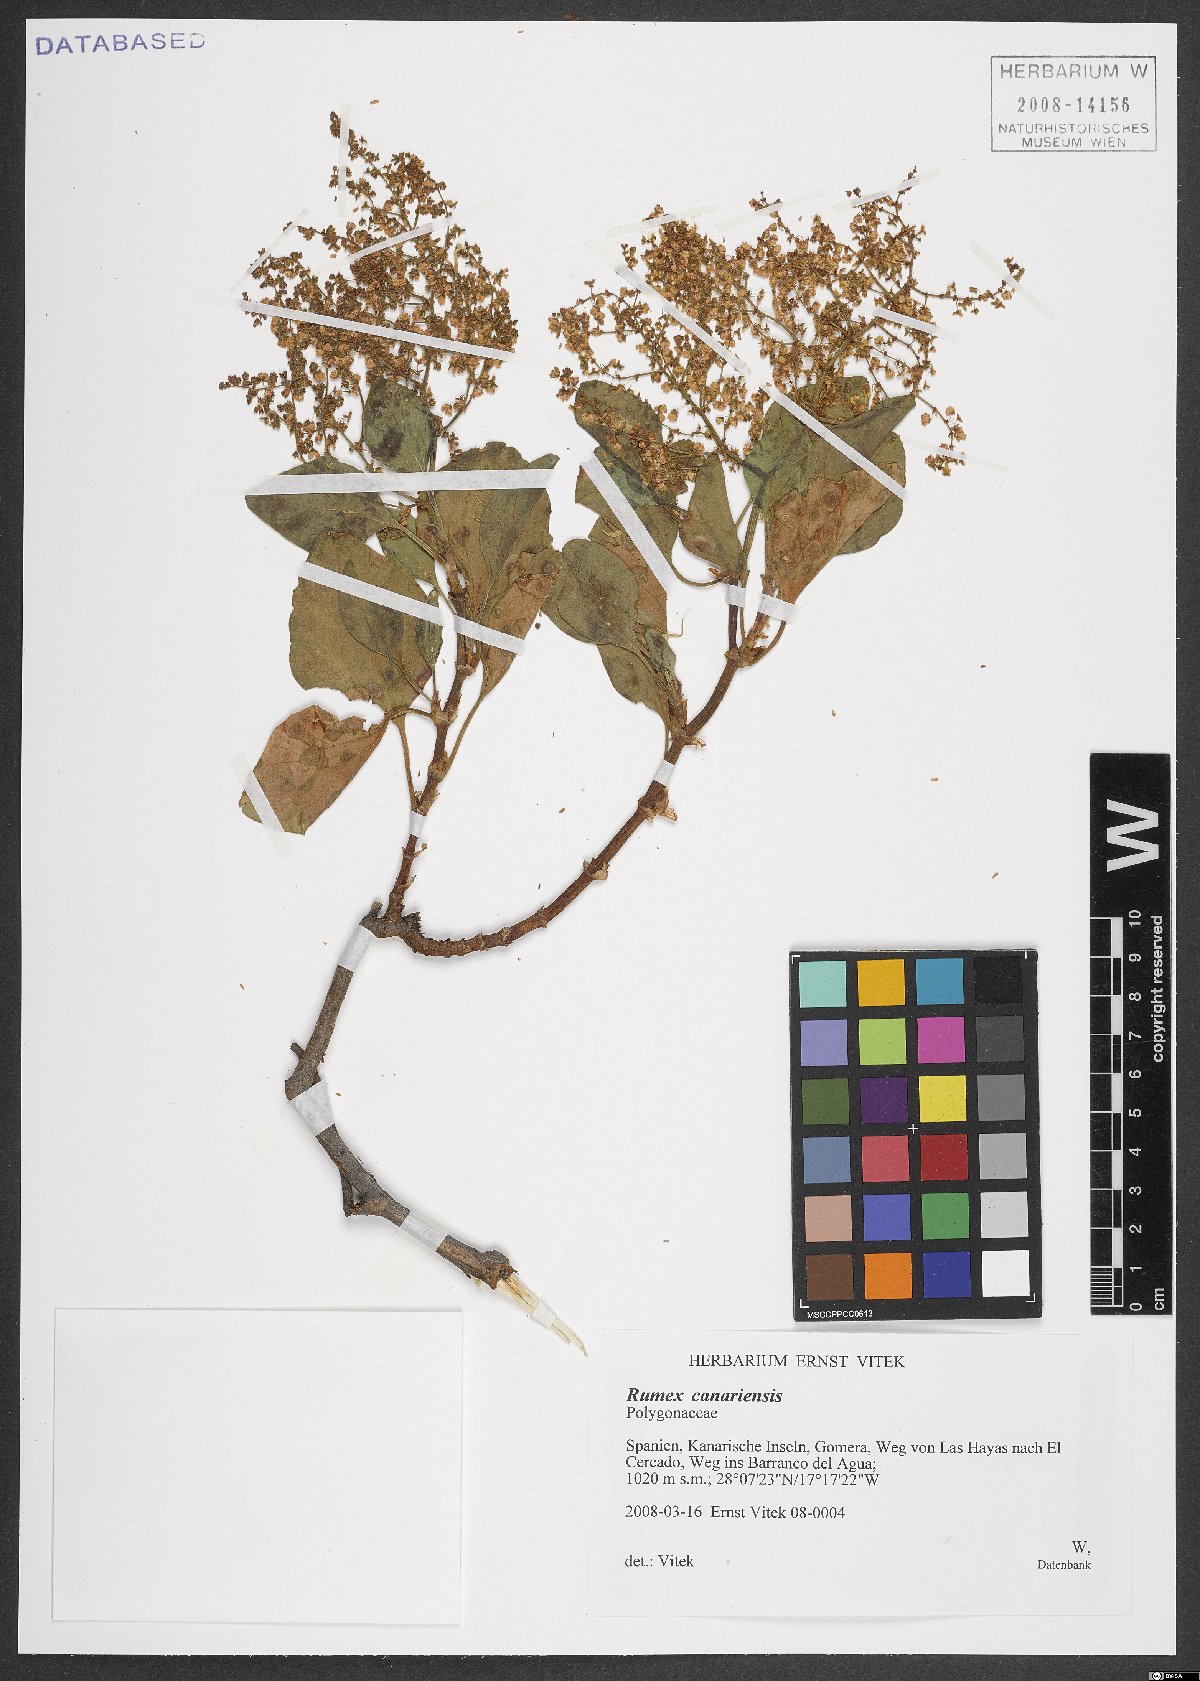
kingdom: Plantae
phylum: Tracheophyta
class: Magnoliopsida
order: Caryophyllales
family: Polygonaceae
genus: Rumex
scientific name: Rumex
